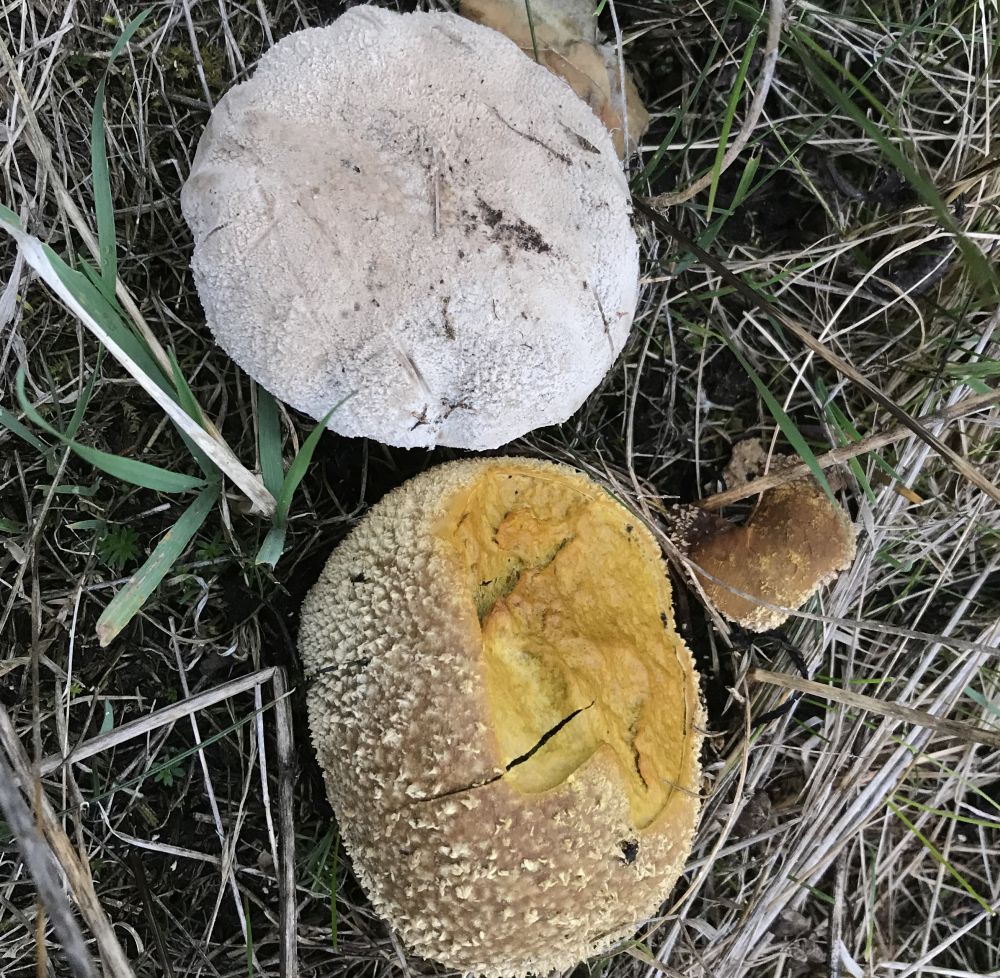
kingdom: Fungi
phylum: Basidiomycota
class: Agaricomycetes
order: Agaricales
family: Lycoperdaceae
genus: Bovistella
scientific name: Bovistella utriformis
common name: skællet støvbold
